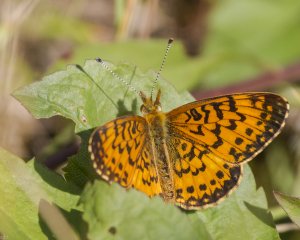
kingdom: Animalia
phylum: Arthropoda
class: Insecta
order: Lepidoptera
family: Nymphalidae
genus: Boloria
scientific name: Boloria selene
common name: Silver-bordered Fritillary
